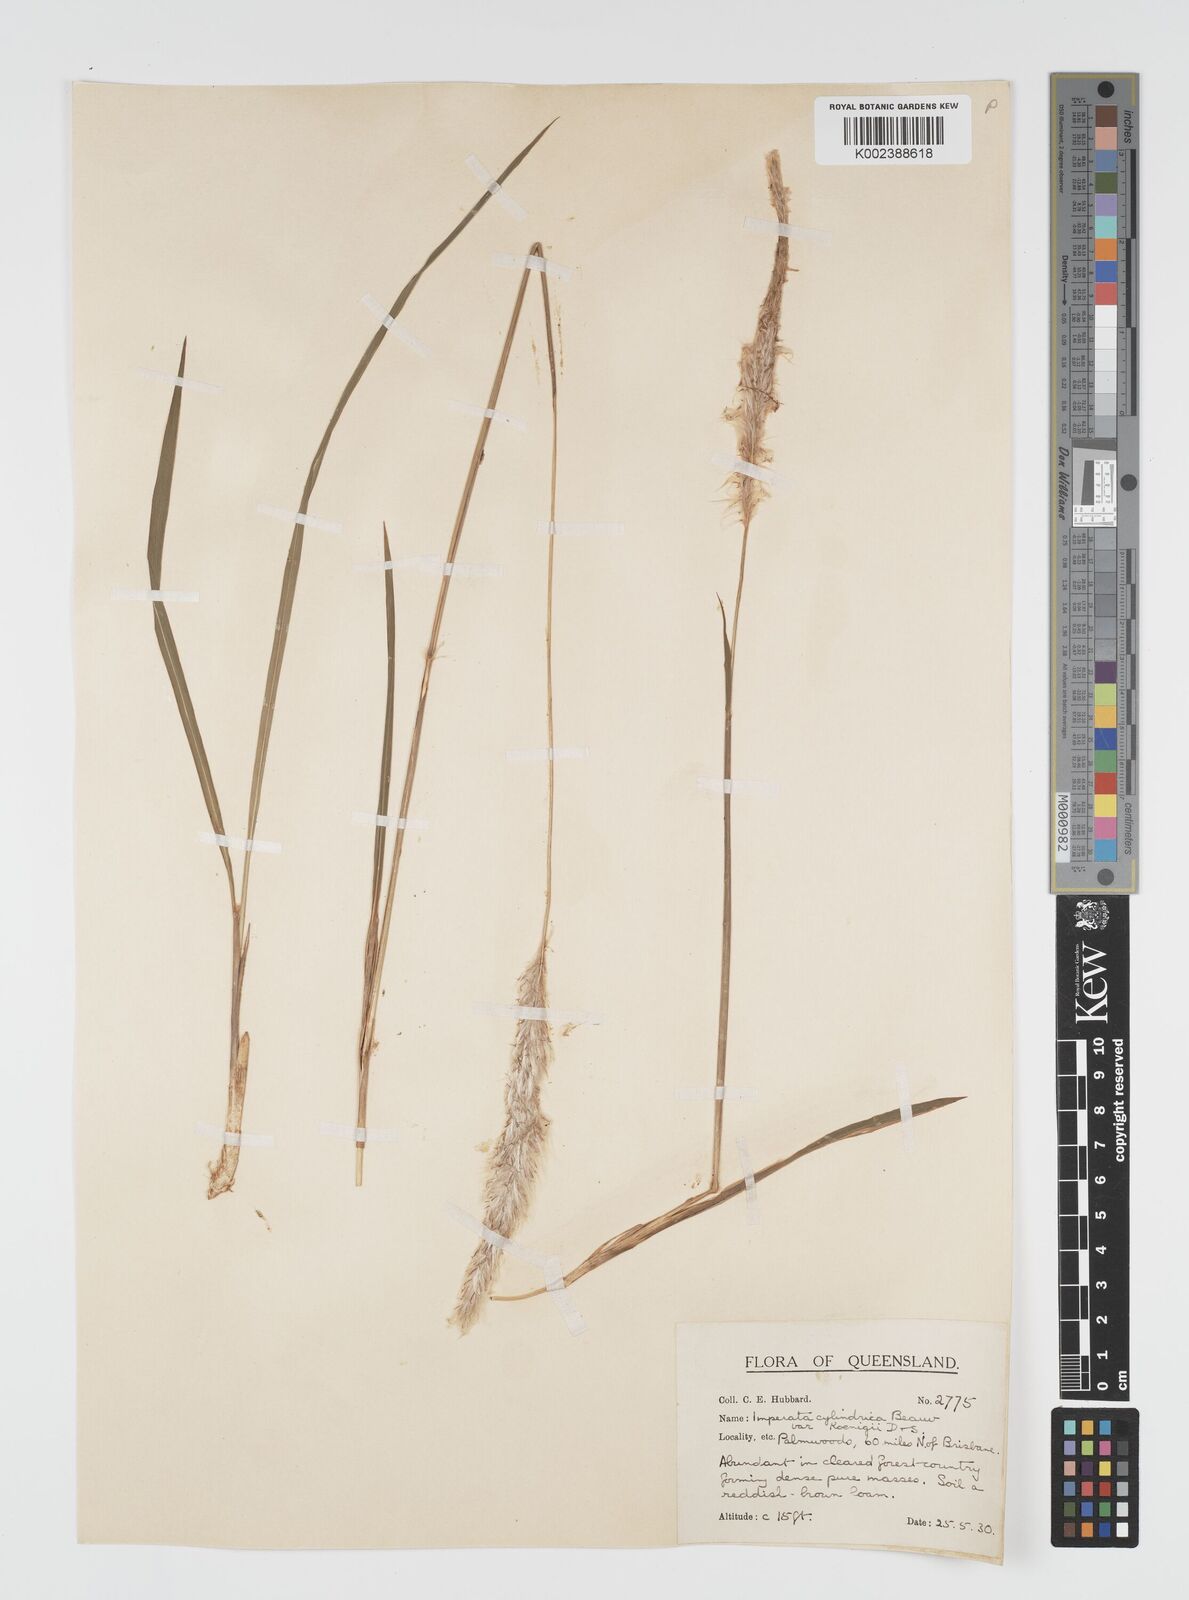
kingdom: Plantae
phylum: Tracheophyta
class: Liliopsida
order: Poales
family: Poaceae
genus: Imperata
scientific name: Imperata cylindrica
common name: Cogongrass
